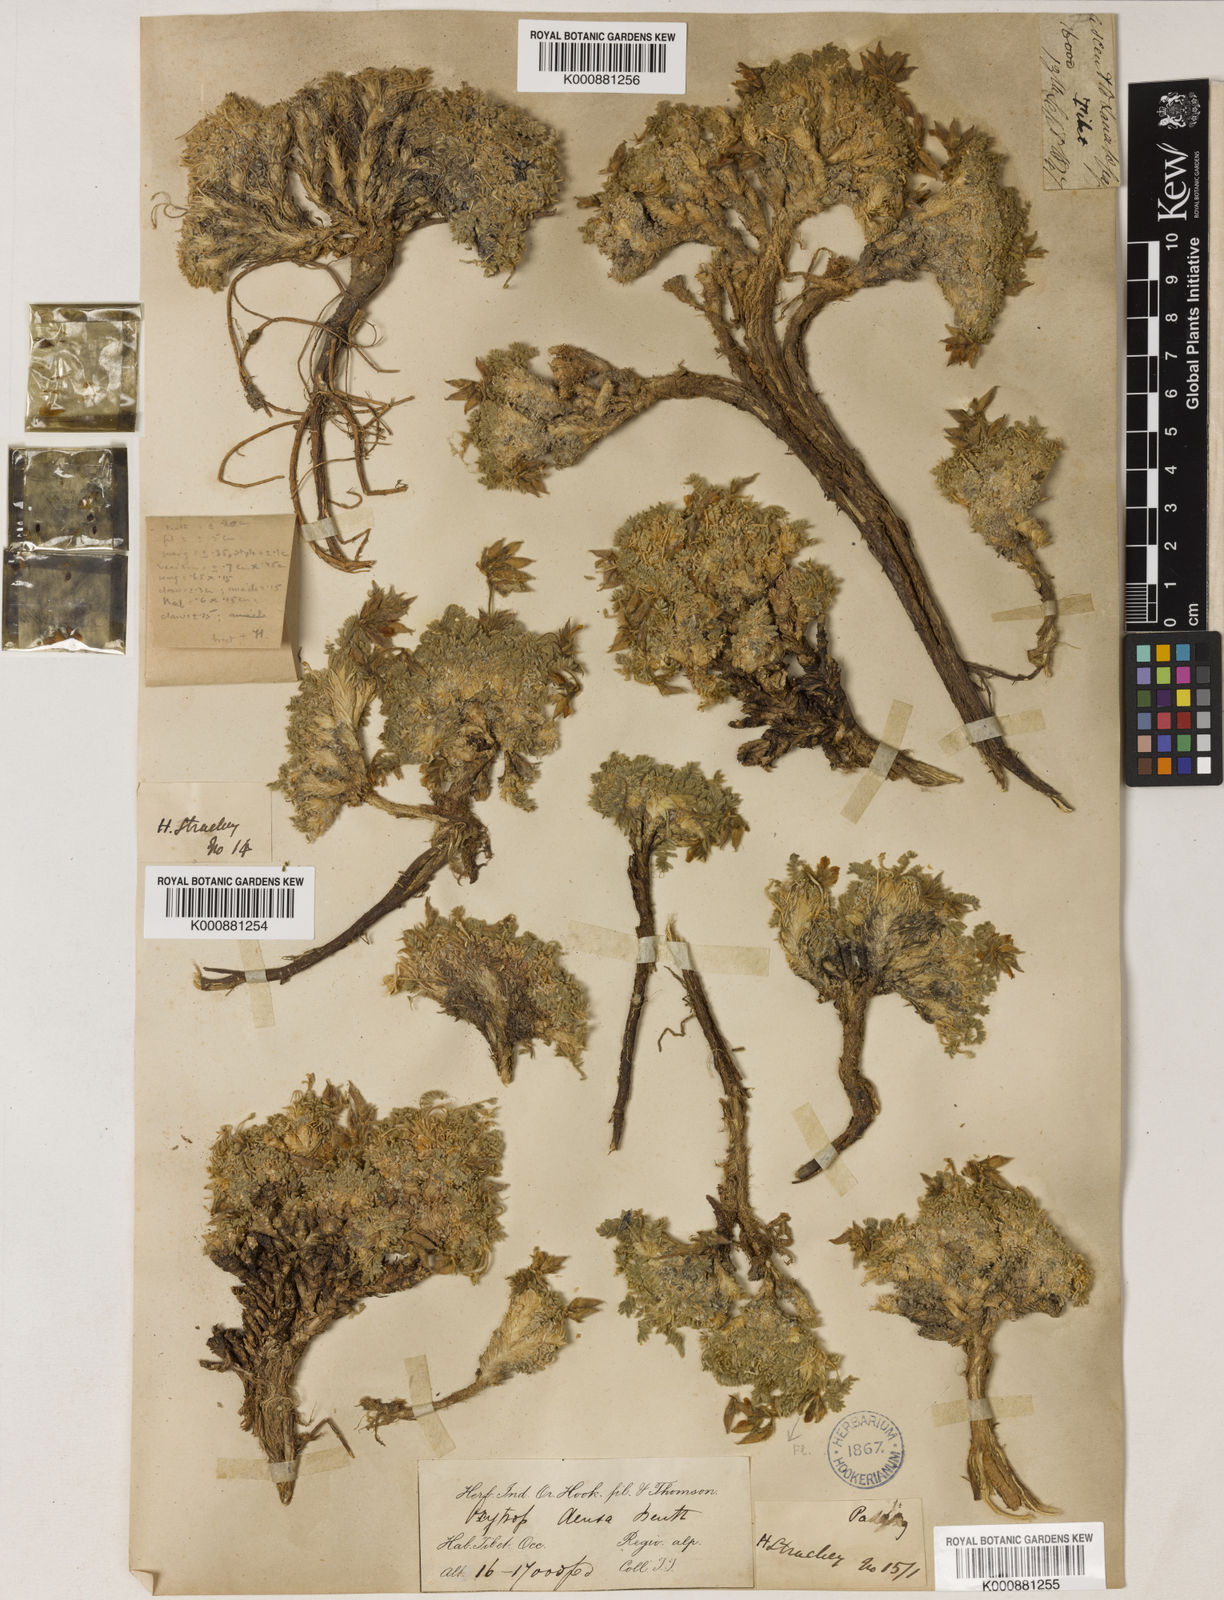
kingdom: Plantae
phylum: Tracheophyta
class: Magnoliopsida
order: Fabales
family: Fabaceae
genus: Oxytropis
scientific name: Oxytropis densa
